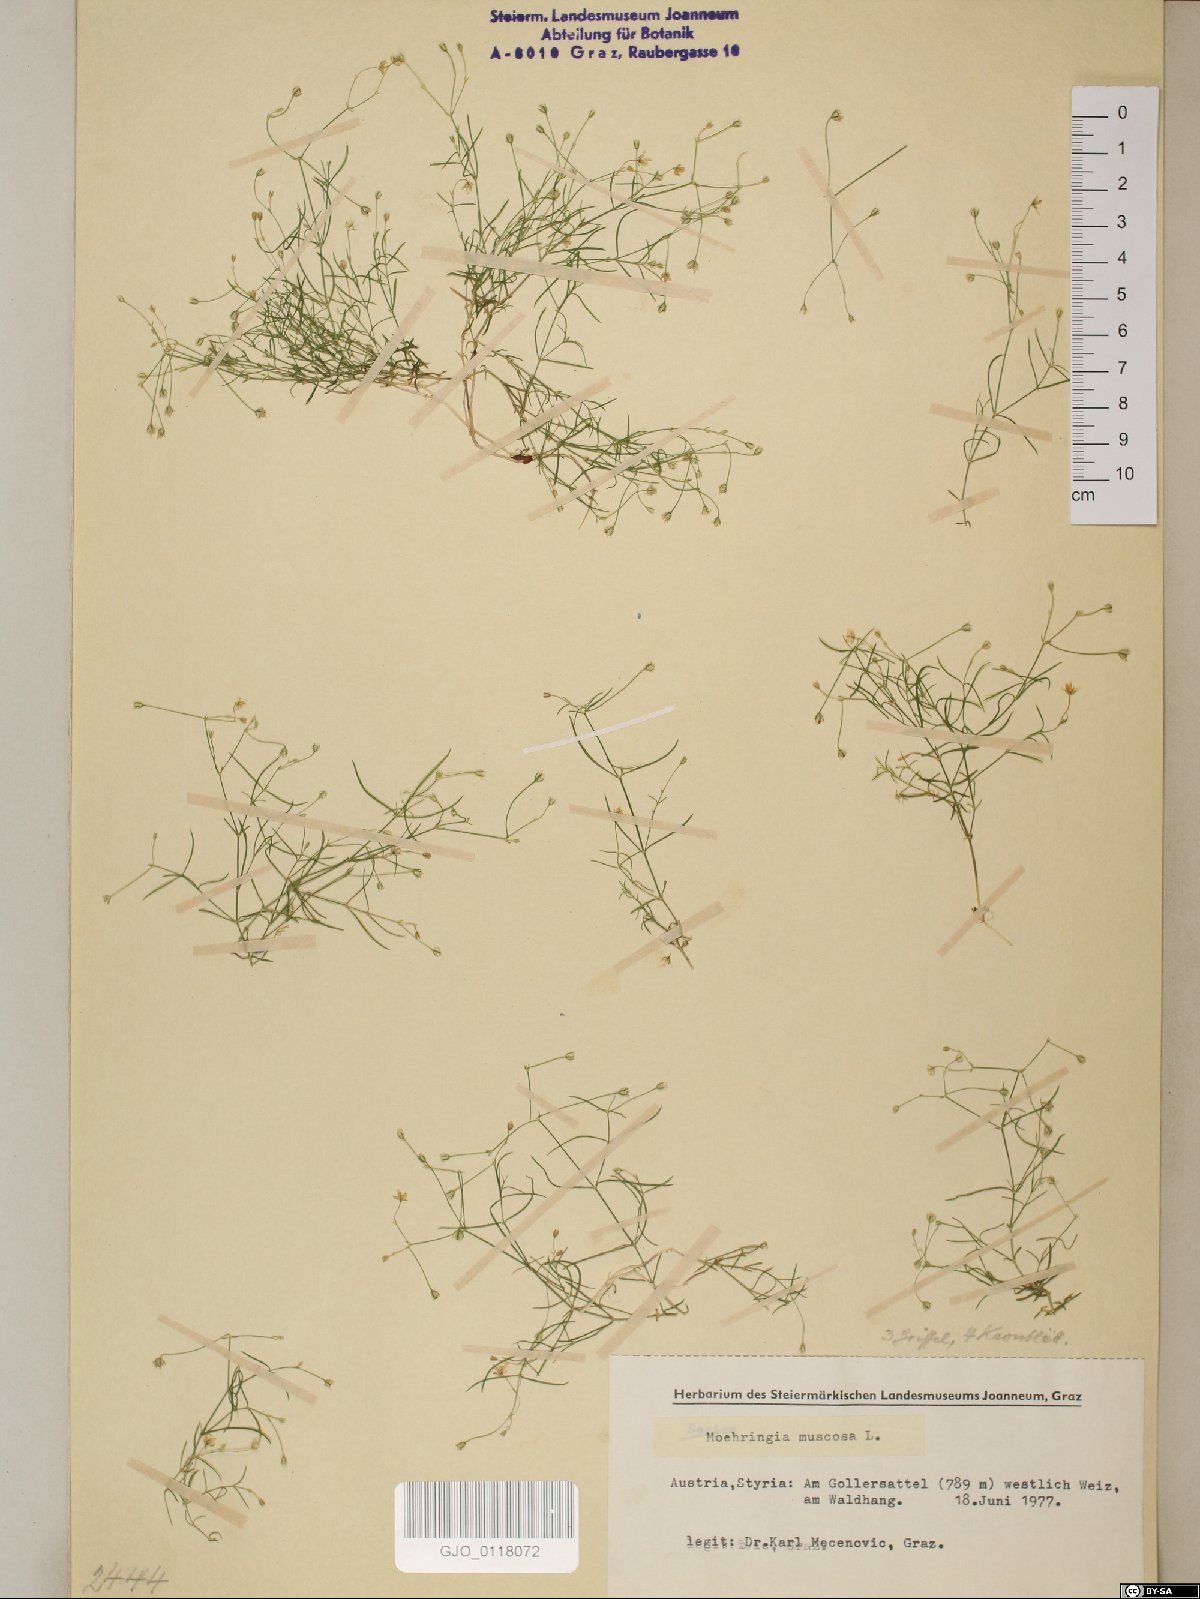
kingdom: Plantae
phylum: Tracheophyta
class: Magnoliopsida
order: Caryophyllales
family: Caryophyllaceae
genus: Moehringia
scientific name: Moehringia muscosa
